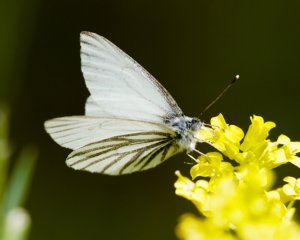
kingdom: Animalia
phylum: Arthropoda
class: Insecta
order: Lepidoptera
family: Pieridae
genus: Pieris
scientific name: Pieris oleracea
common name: Mustard White
